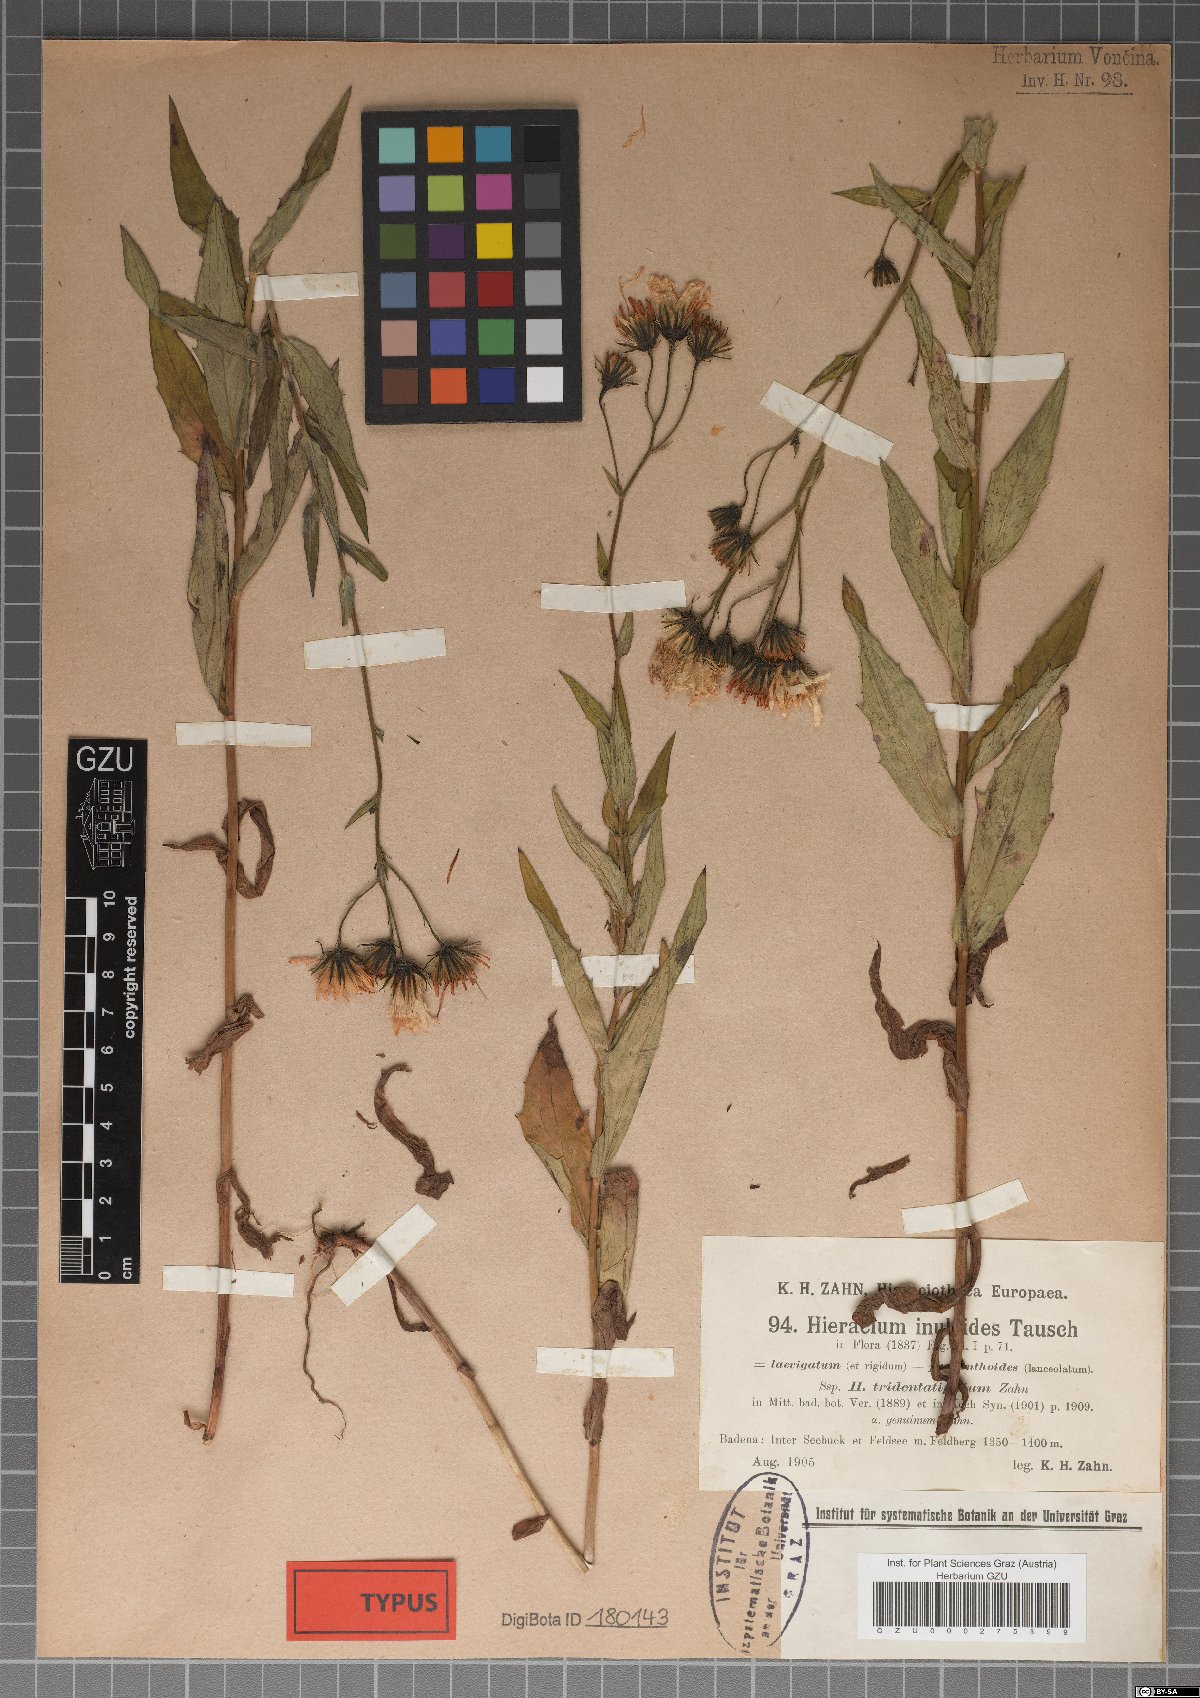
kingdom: Plantae
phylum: Tracheophyta
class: Magnoliopsida
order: Asterales
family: Asteraceae
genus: Hieracium
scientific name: Hieracium inuloides
